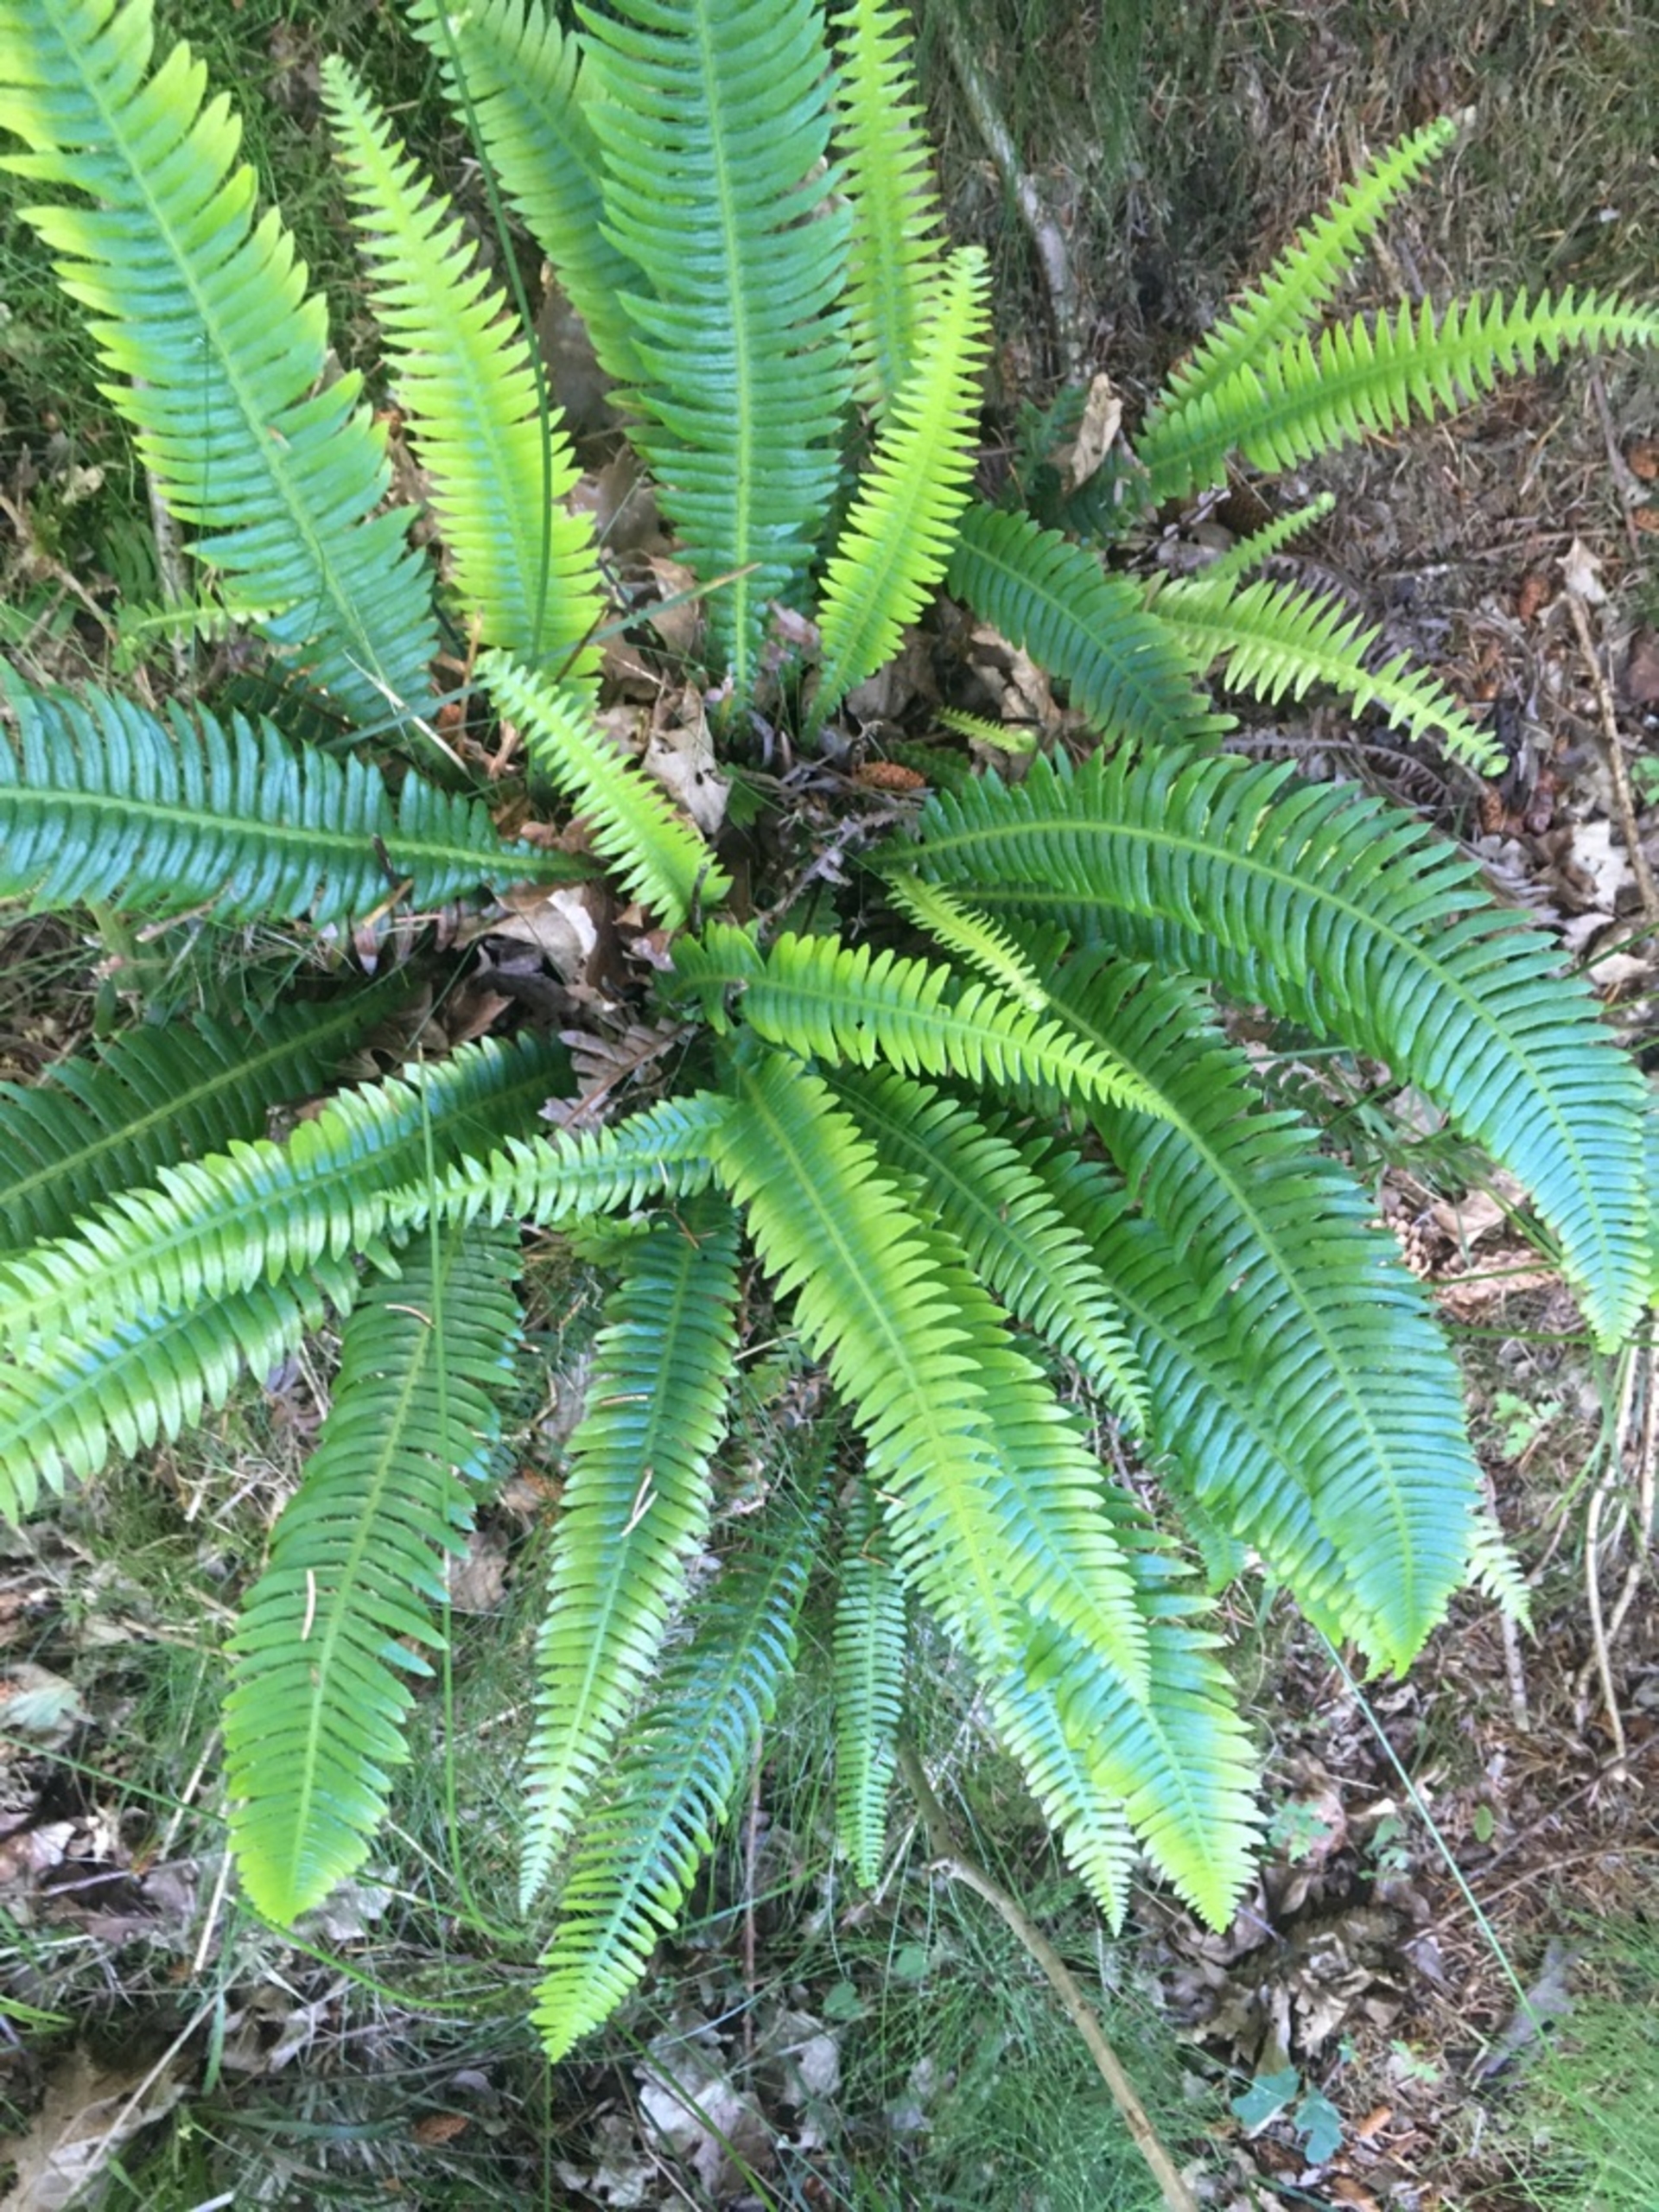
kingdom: Plantae
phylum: Tracheophyta
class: Polypodiopsida
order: Polypodiales
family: Blechnaceae
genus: Struthiopteris
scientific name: Struthiopteris spicant
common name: Kambregne
